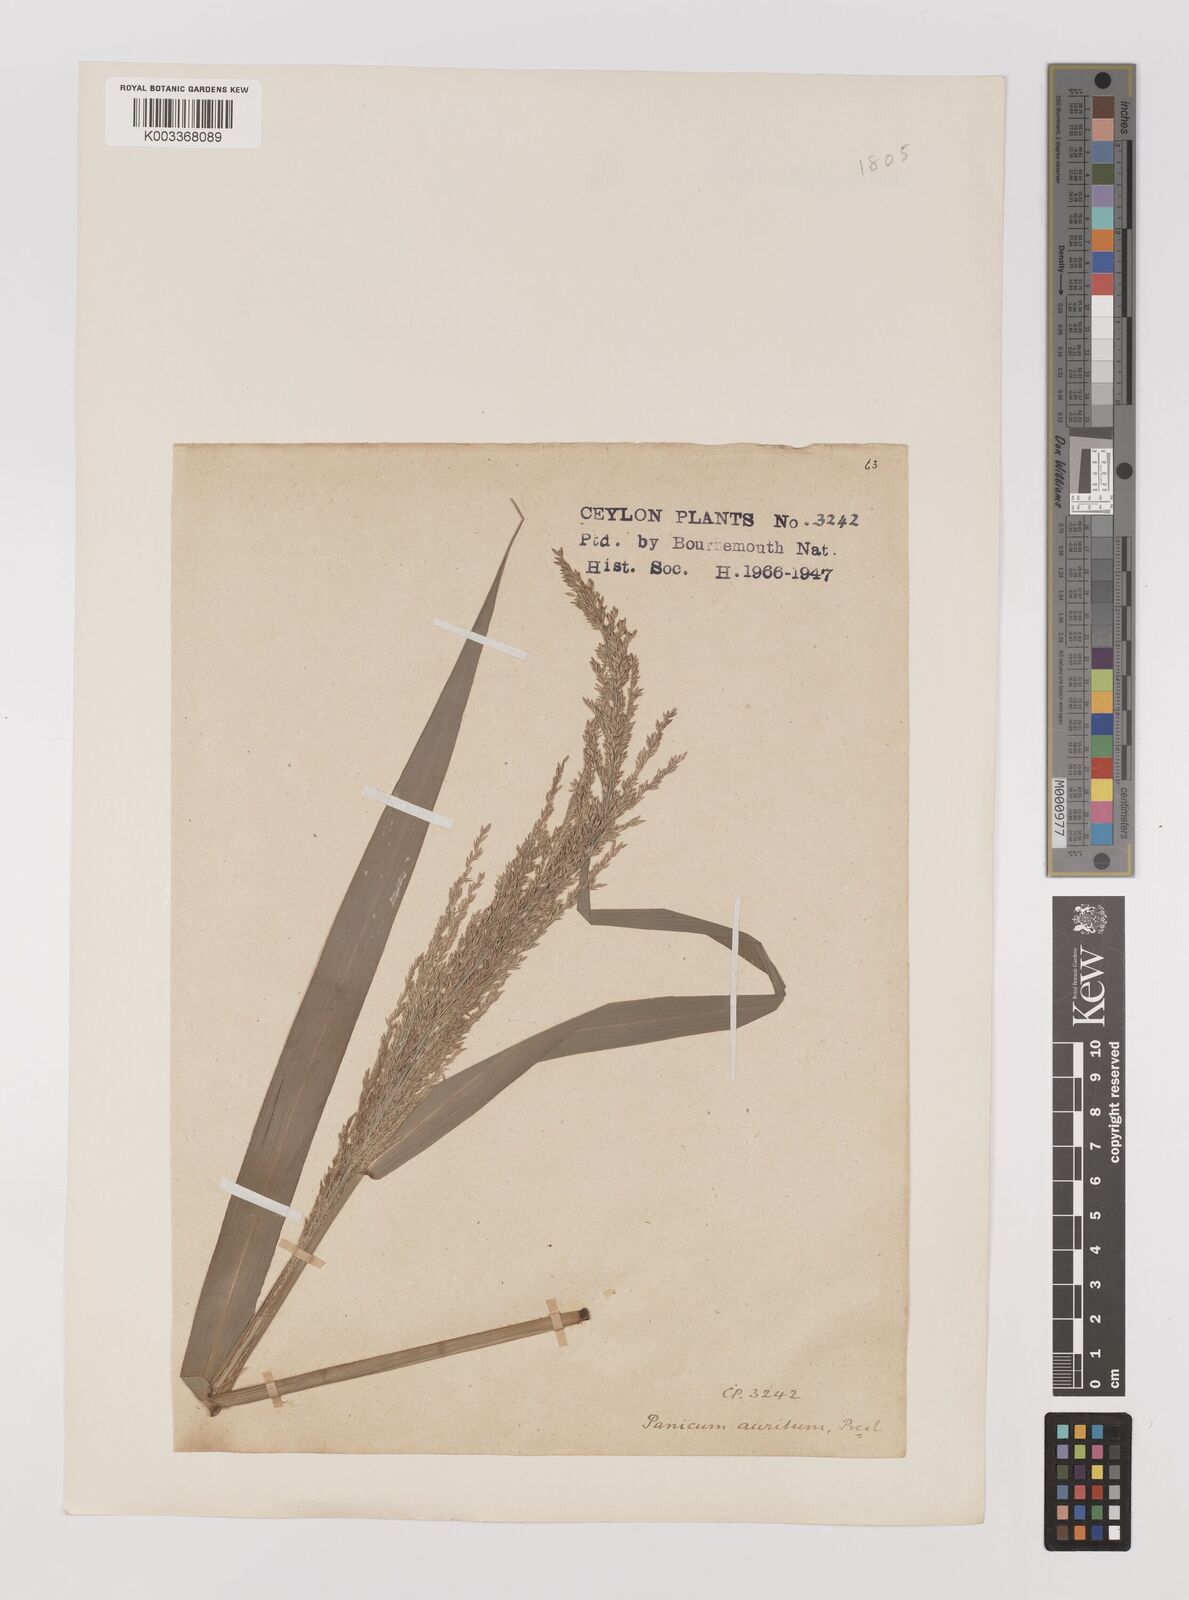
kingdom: Plantae
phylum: Tracheophyta
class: Liliopsida
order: Poales
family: Poaceae
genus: Hymenachne
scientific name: Hymenachne aurita
